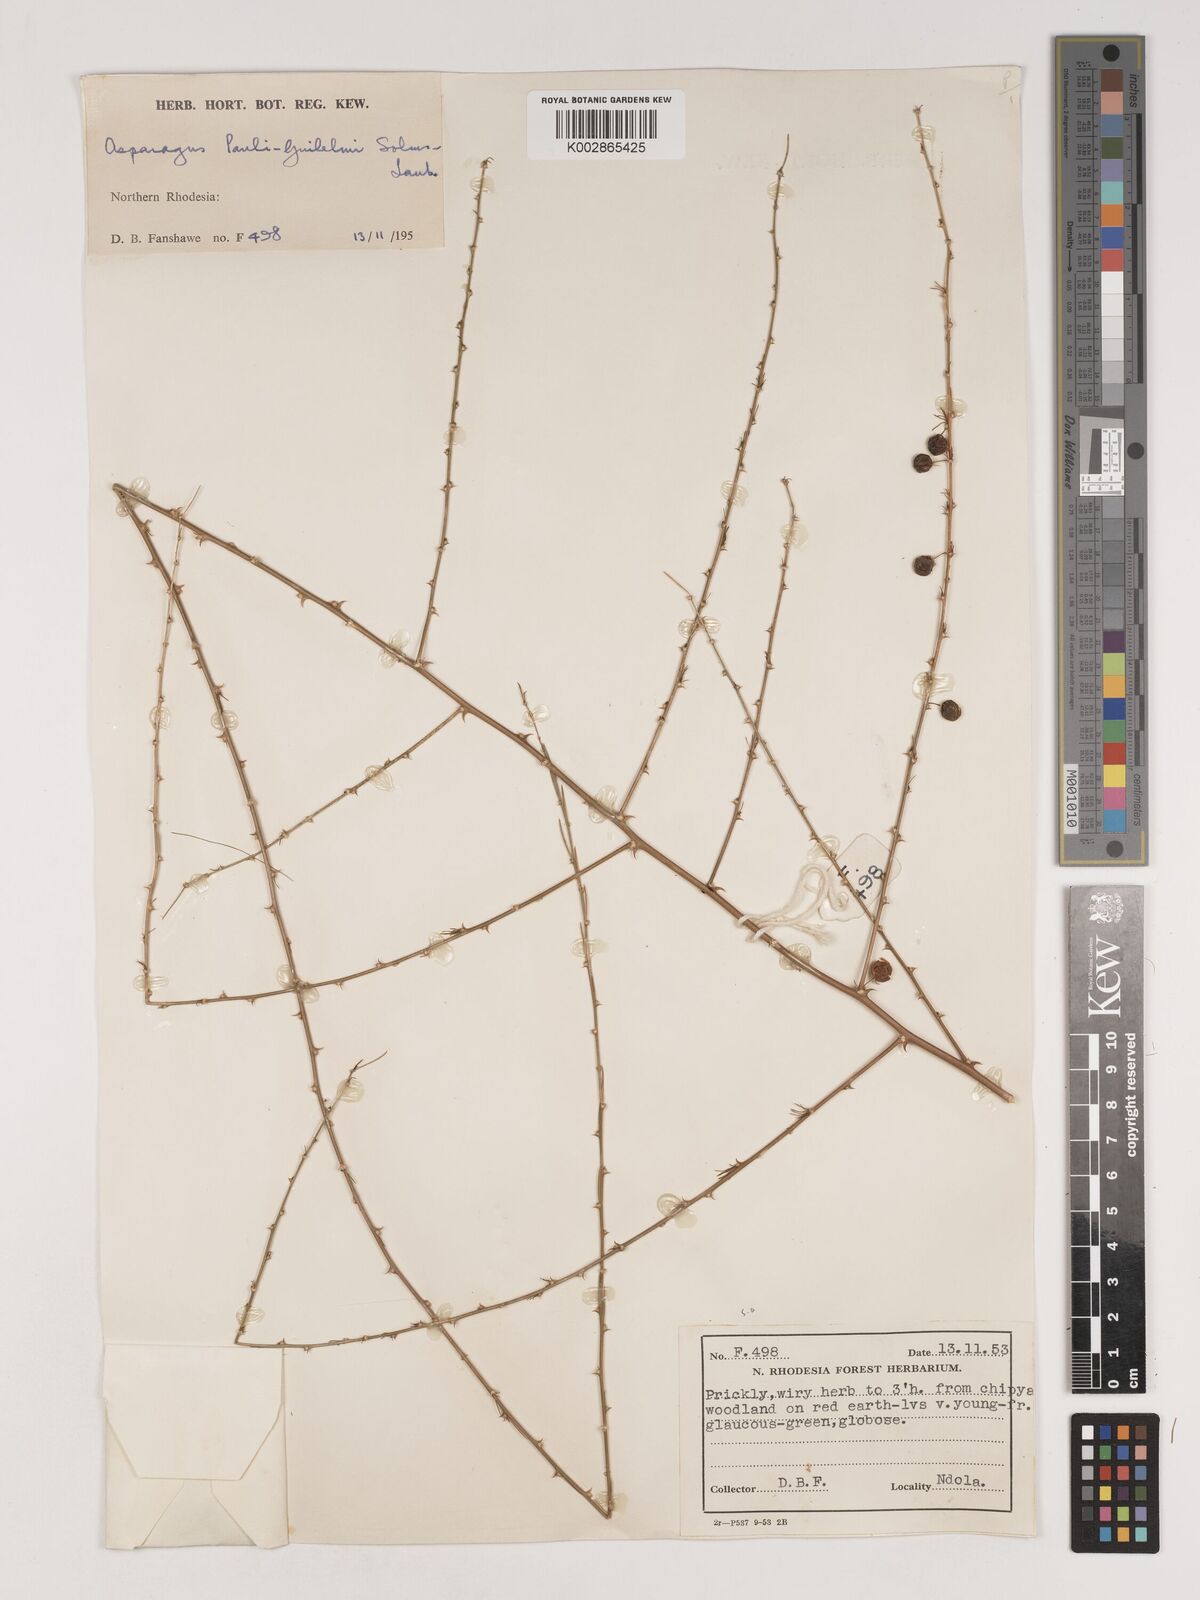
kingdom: Plantae
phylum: Tracheophyta
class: Liliopsida
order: Asparagales
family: Asparagaceae
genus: Asparagus
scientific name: Asparagus flagellaris
